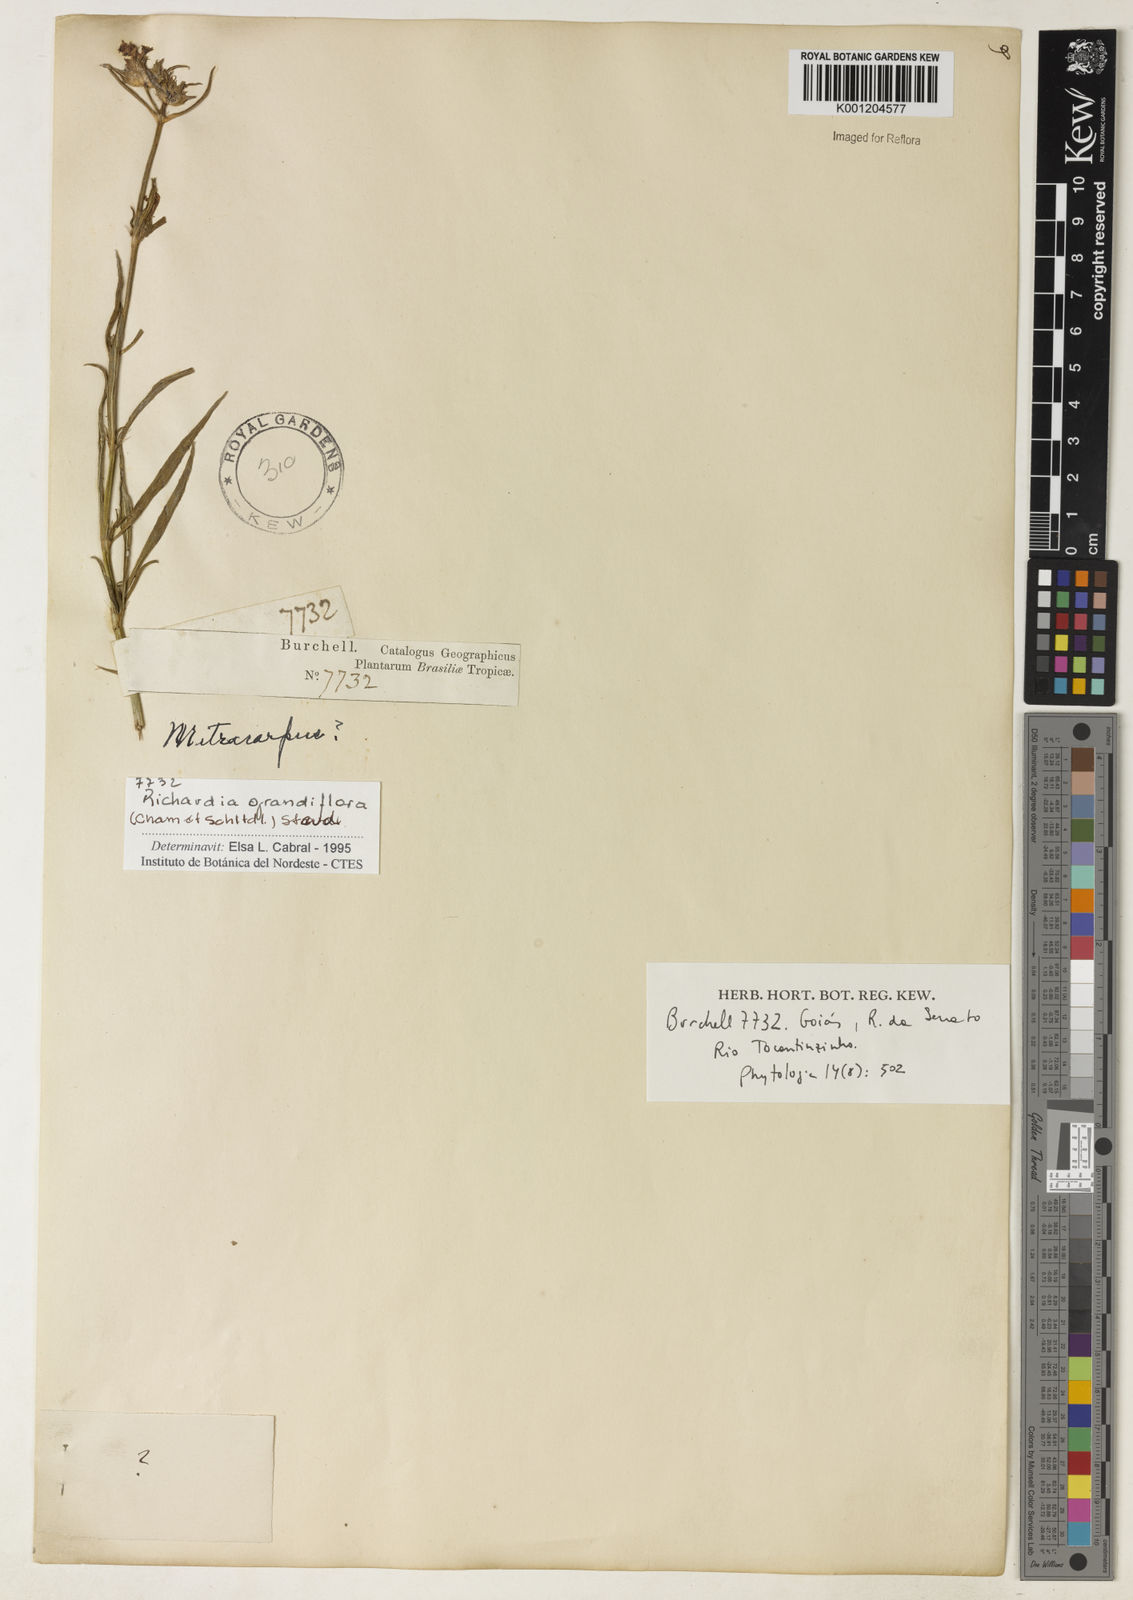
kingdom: Plantae
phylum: Tracheophyta
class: Magnoliopsida
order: Gentianales
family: Rubiaceae
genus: Richardia
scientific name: Richardia grandiflora
